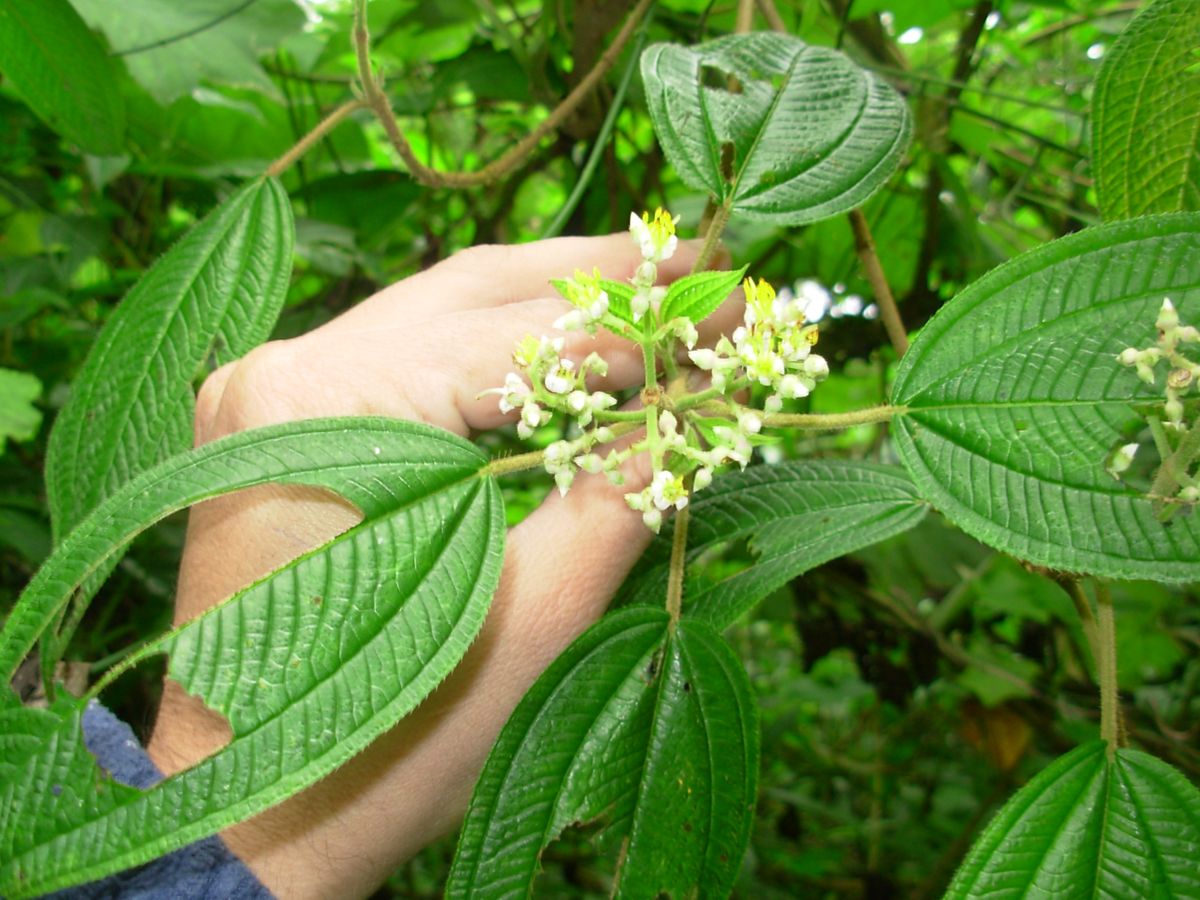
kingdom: Plantae
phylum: Tracheophyta
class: Magnoliopsida
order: Myrtales
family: Melastomataceae
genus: Miconia
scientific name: Miconia subseriata
